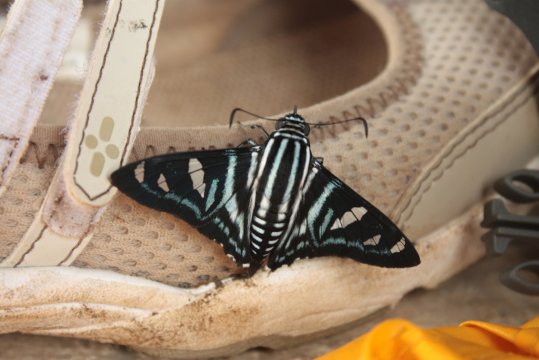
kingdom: Animalia
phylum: Arthropoda
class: Insecta
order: Lepidoptera
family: Hesperiidae
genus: Jemadia
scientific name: Jemadia fallax
